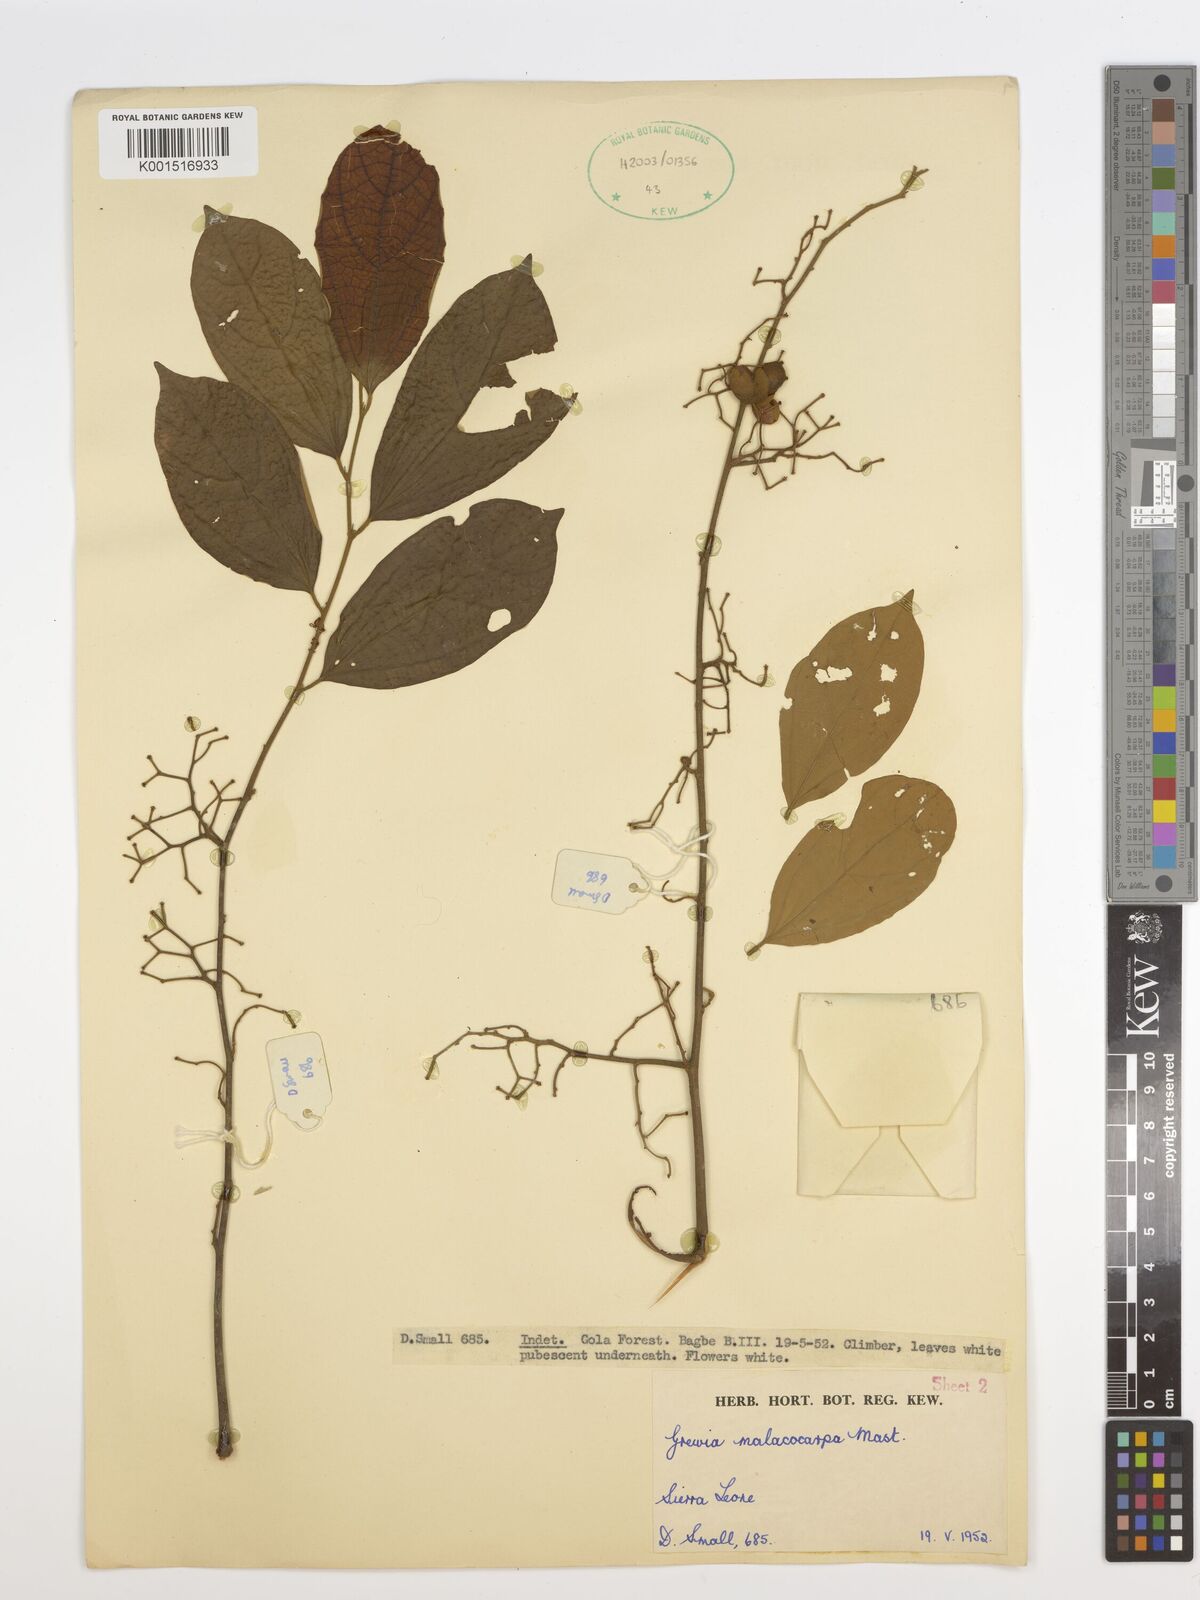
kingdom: Plantae
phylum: Tracheophyta
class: Magnoliopsida
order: Malvales
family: Malvaceae
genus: Microcos
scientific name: Microcos malacocarpa
